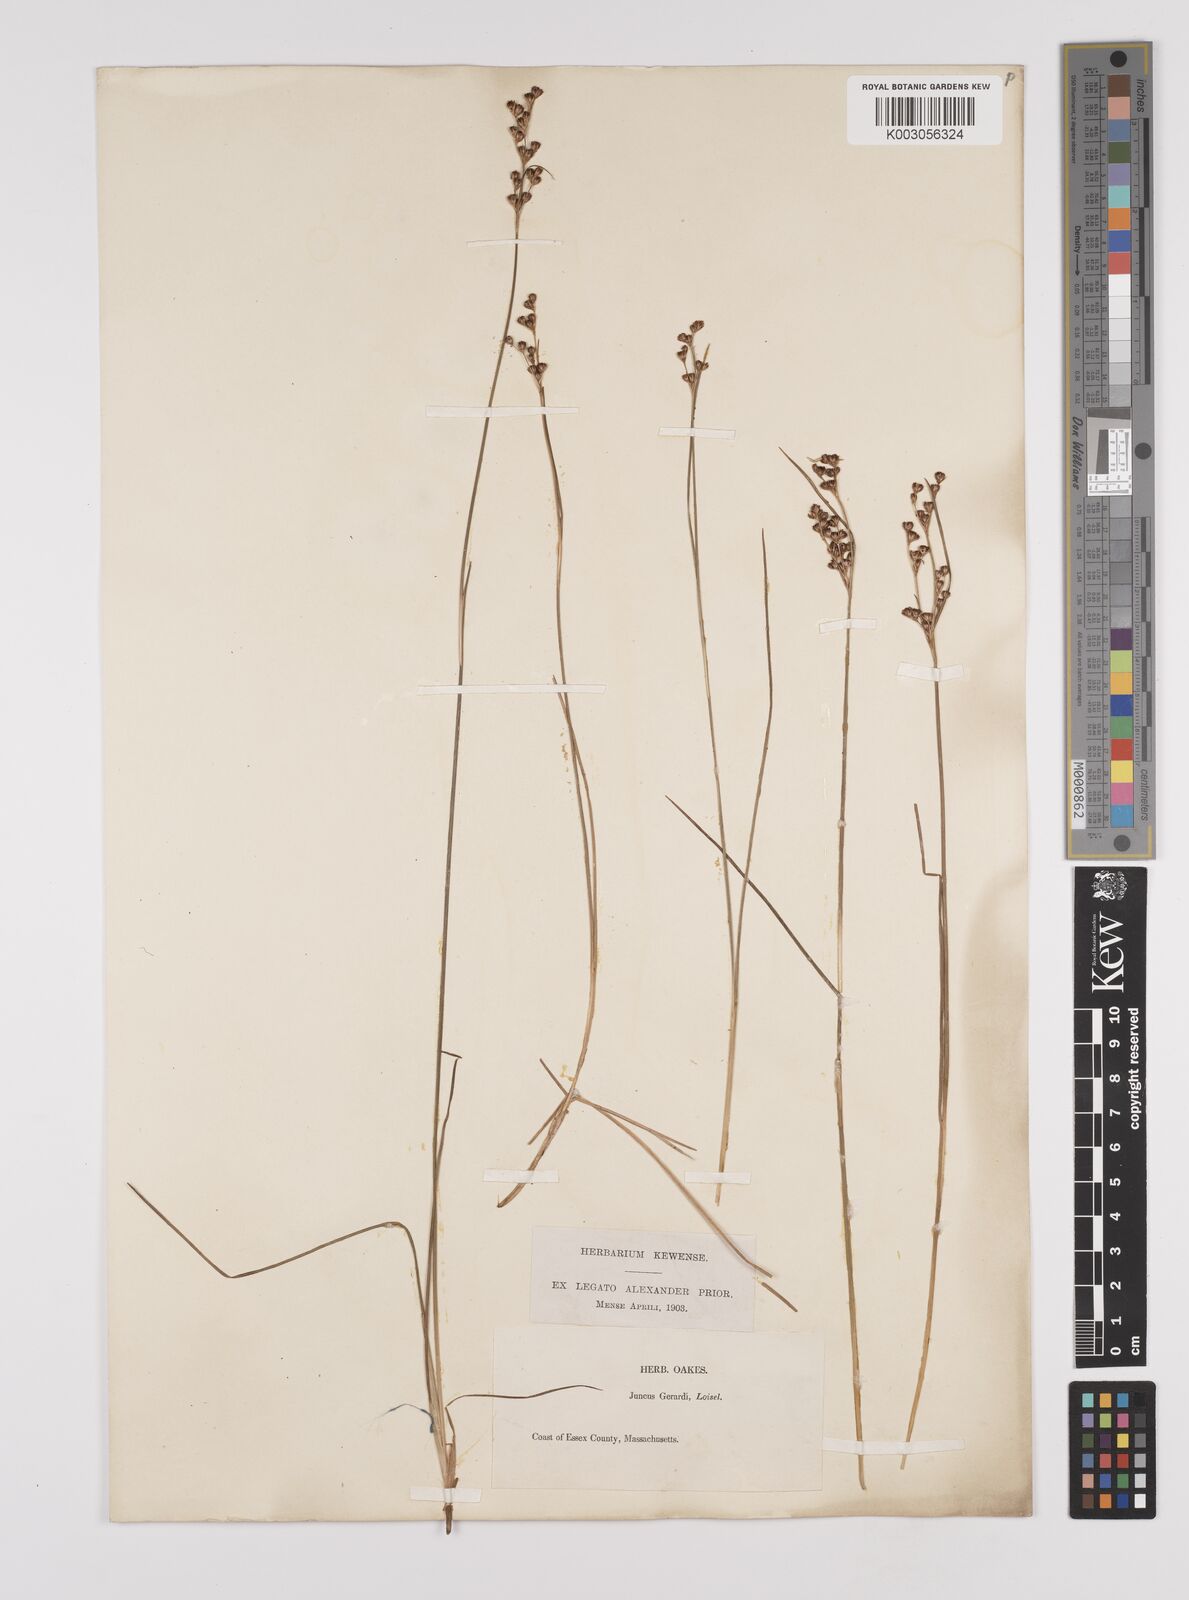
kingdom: Plantae
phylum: Tracheophyta
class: Liliopsida
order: Poales
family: Juncaceae
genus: Juncus
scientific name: Juncus gerardi
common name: Saltmarsh rush
